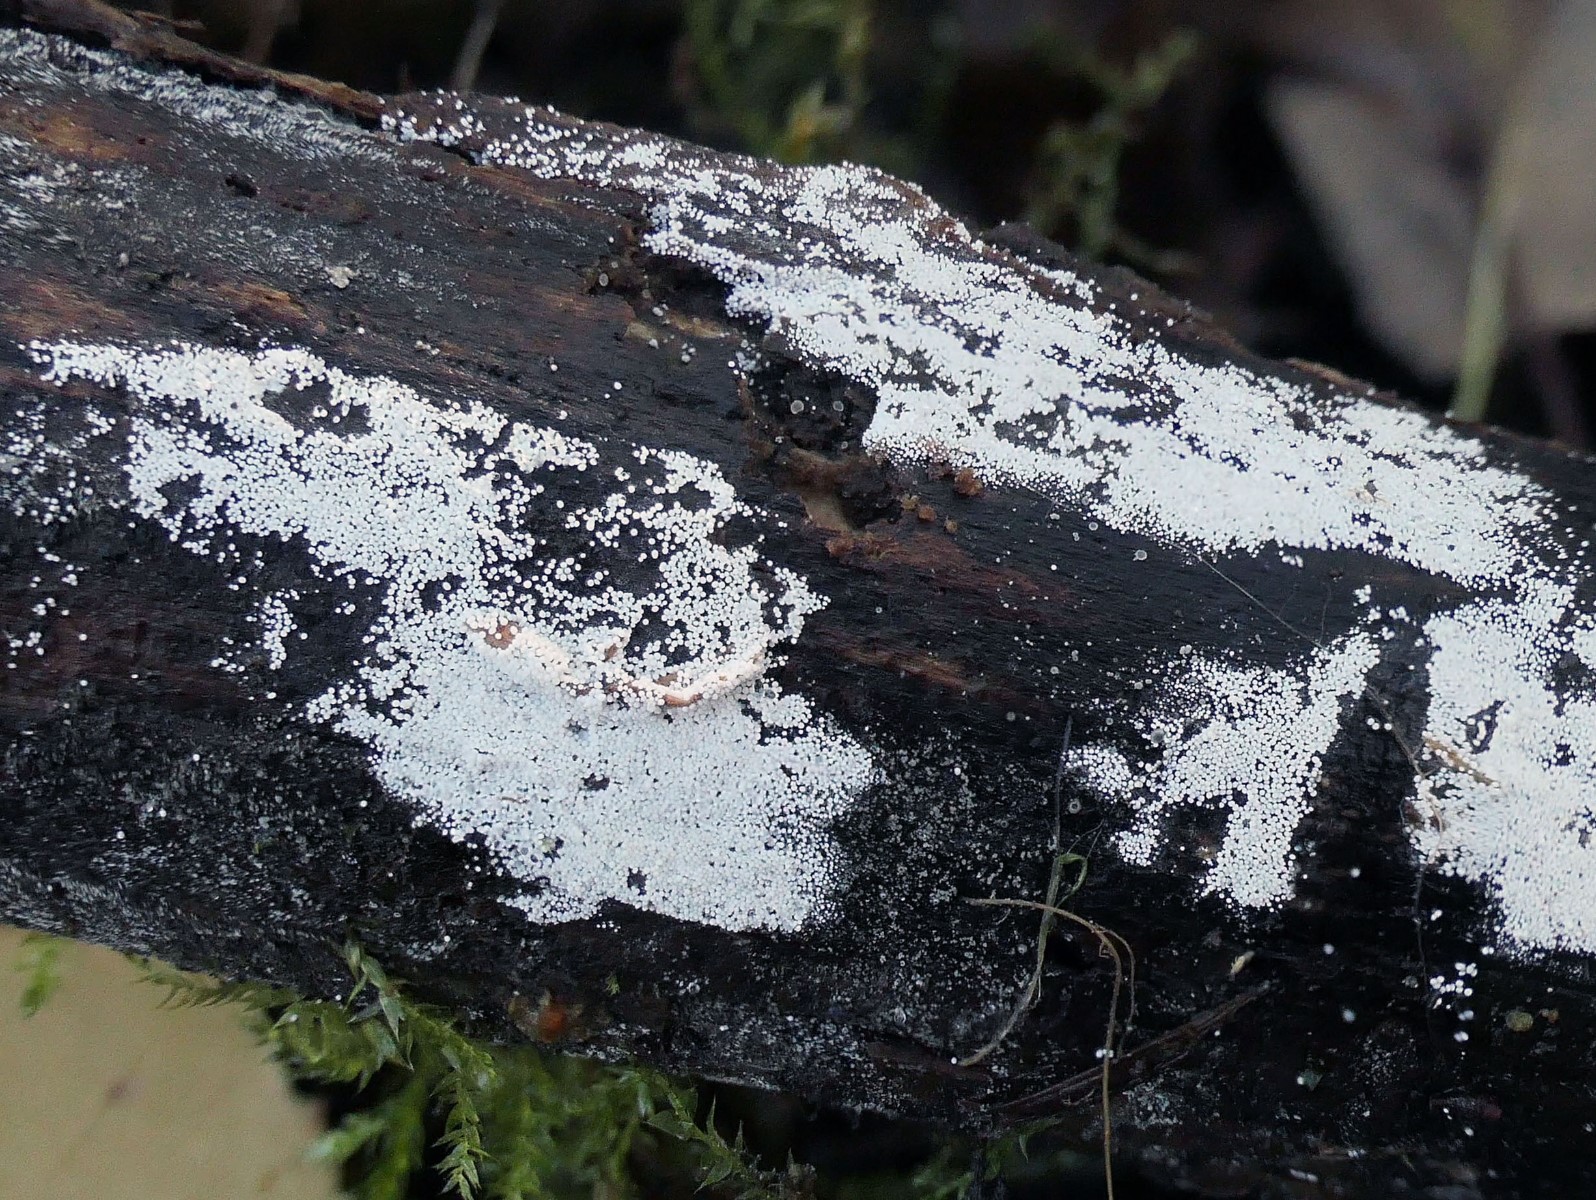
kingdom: Fungi
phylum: Basidiomycota
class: Agaricomycetes
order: Polyporales
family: Meruliaceae
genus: Bulbillomyces
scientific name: Bulbillomyces farinosus
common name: æg-kalkskind
